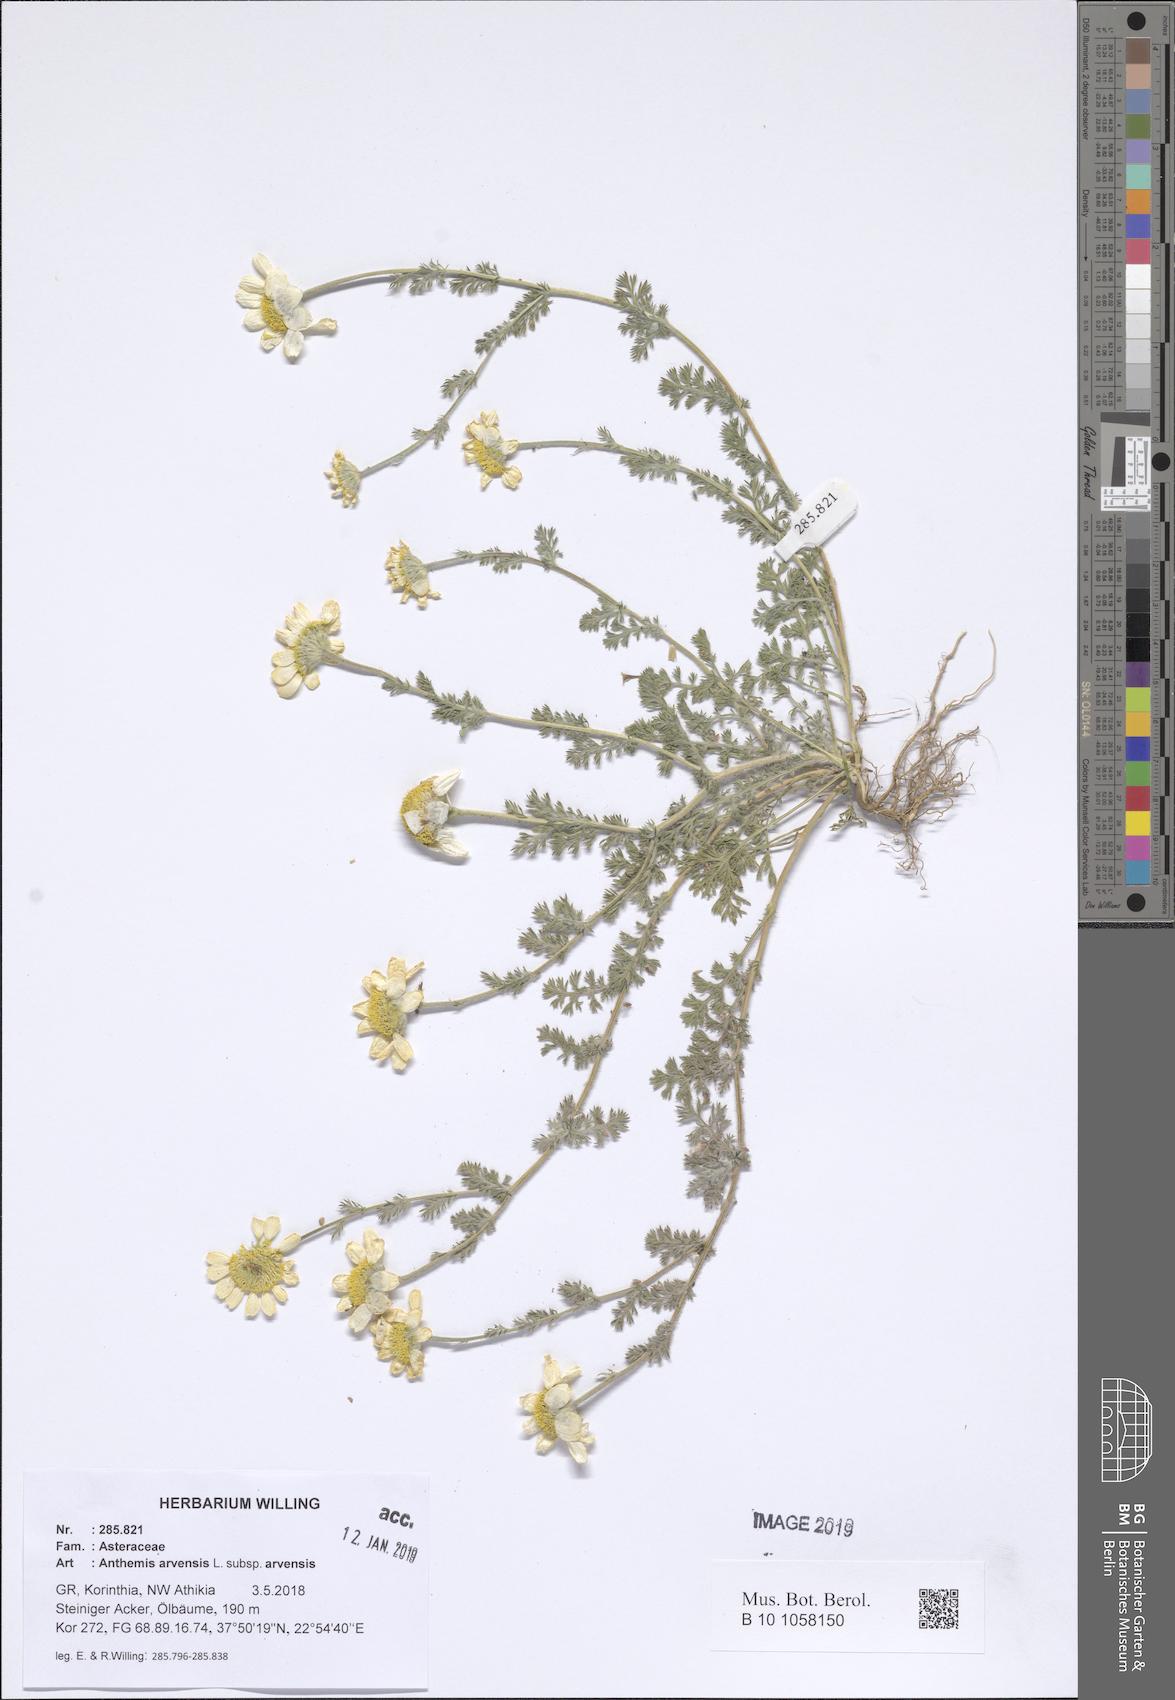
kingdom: Plantae
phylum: Tracheophyta
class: Magnoliopsida
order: Asterales
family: Asteraceae
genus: Anthemis
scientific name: Anthemis arvensis
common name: Corn chamomile
